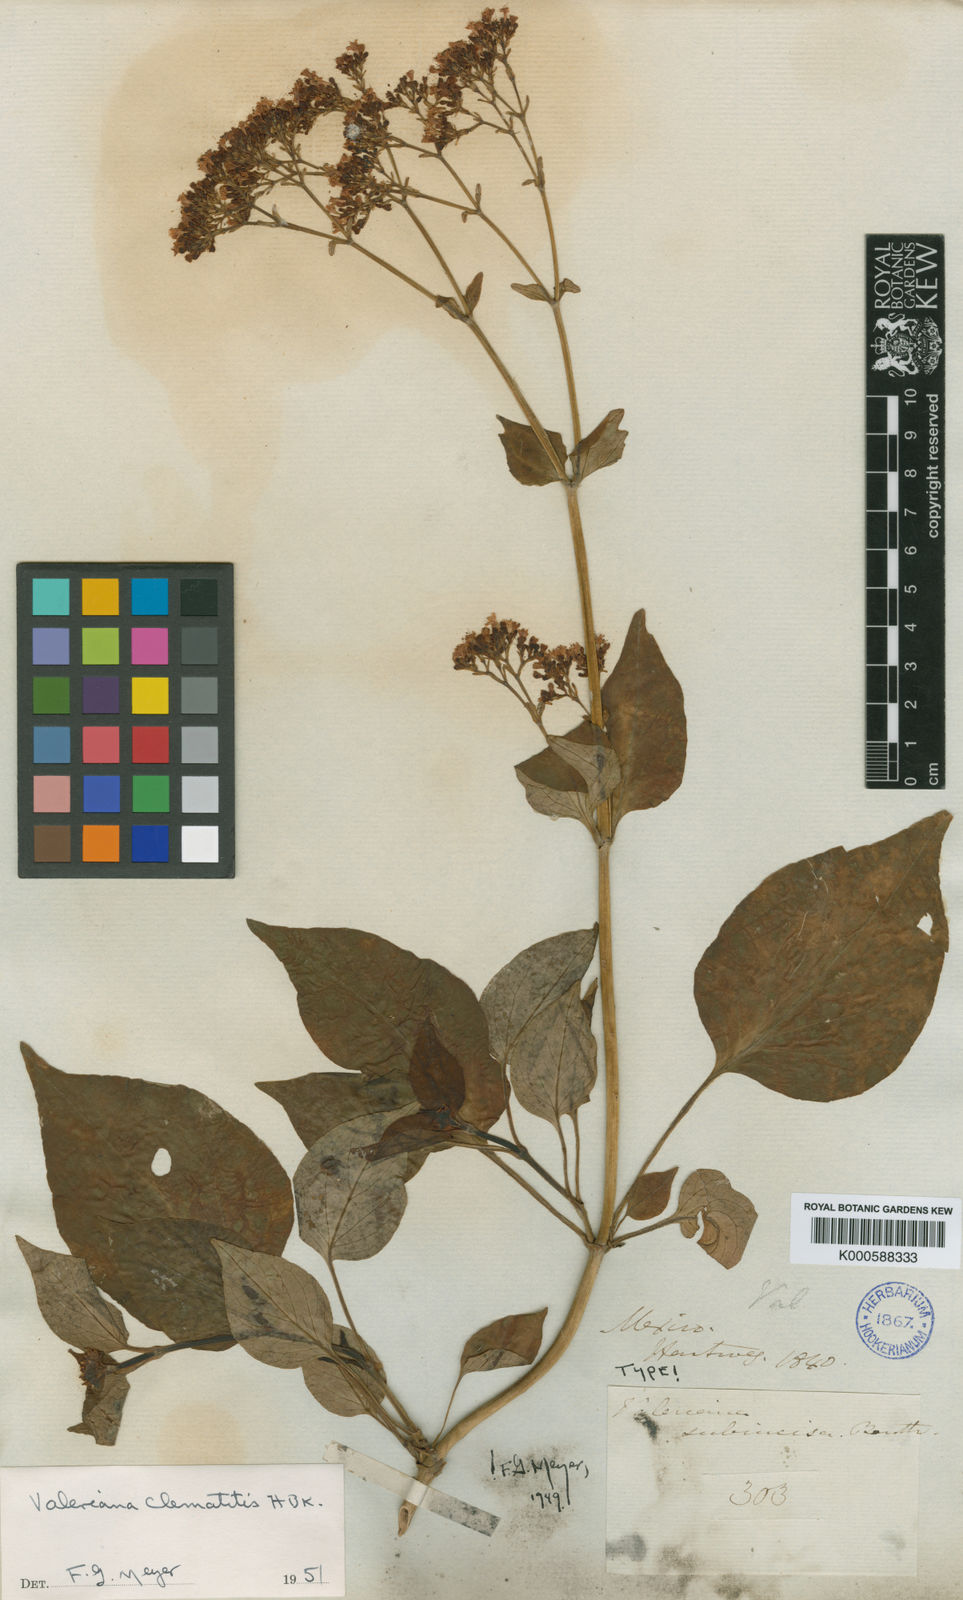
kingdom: Plantae
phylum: Tracheophyta
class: Magnoliopsida
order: Dipsacales
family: Caprifoliaceae
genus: Valeriana
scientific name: Valeriana clematitis
